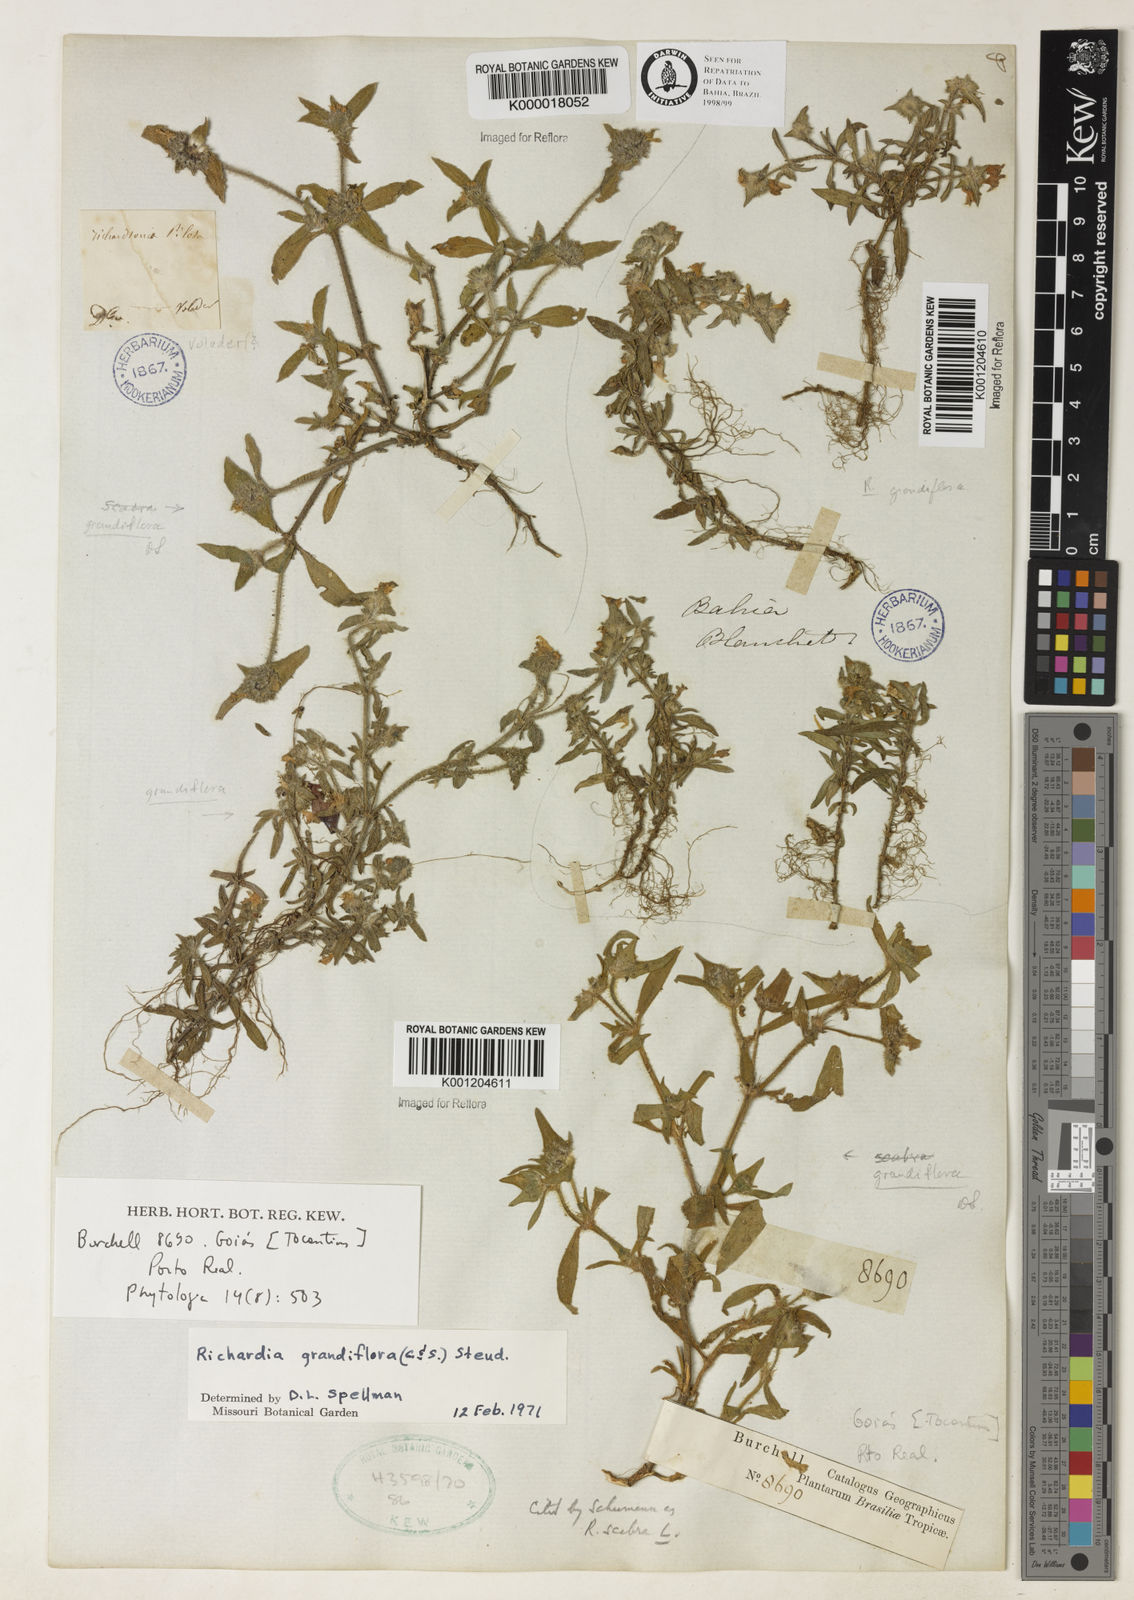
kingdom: Plantae
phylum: Tracheophyta
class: Magnoliopsida
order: Gentianales
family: Rubiaceae
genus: Richardia
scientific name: Richardia grandiflora
